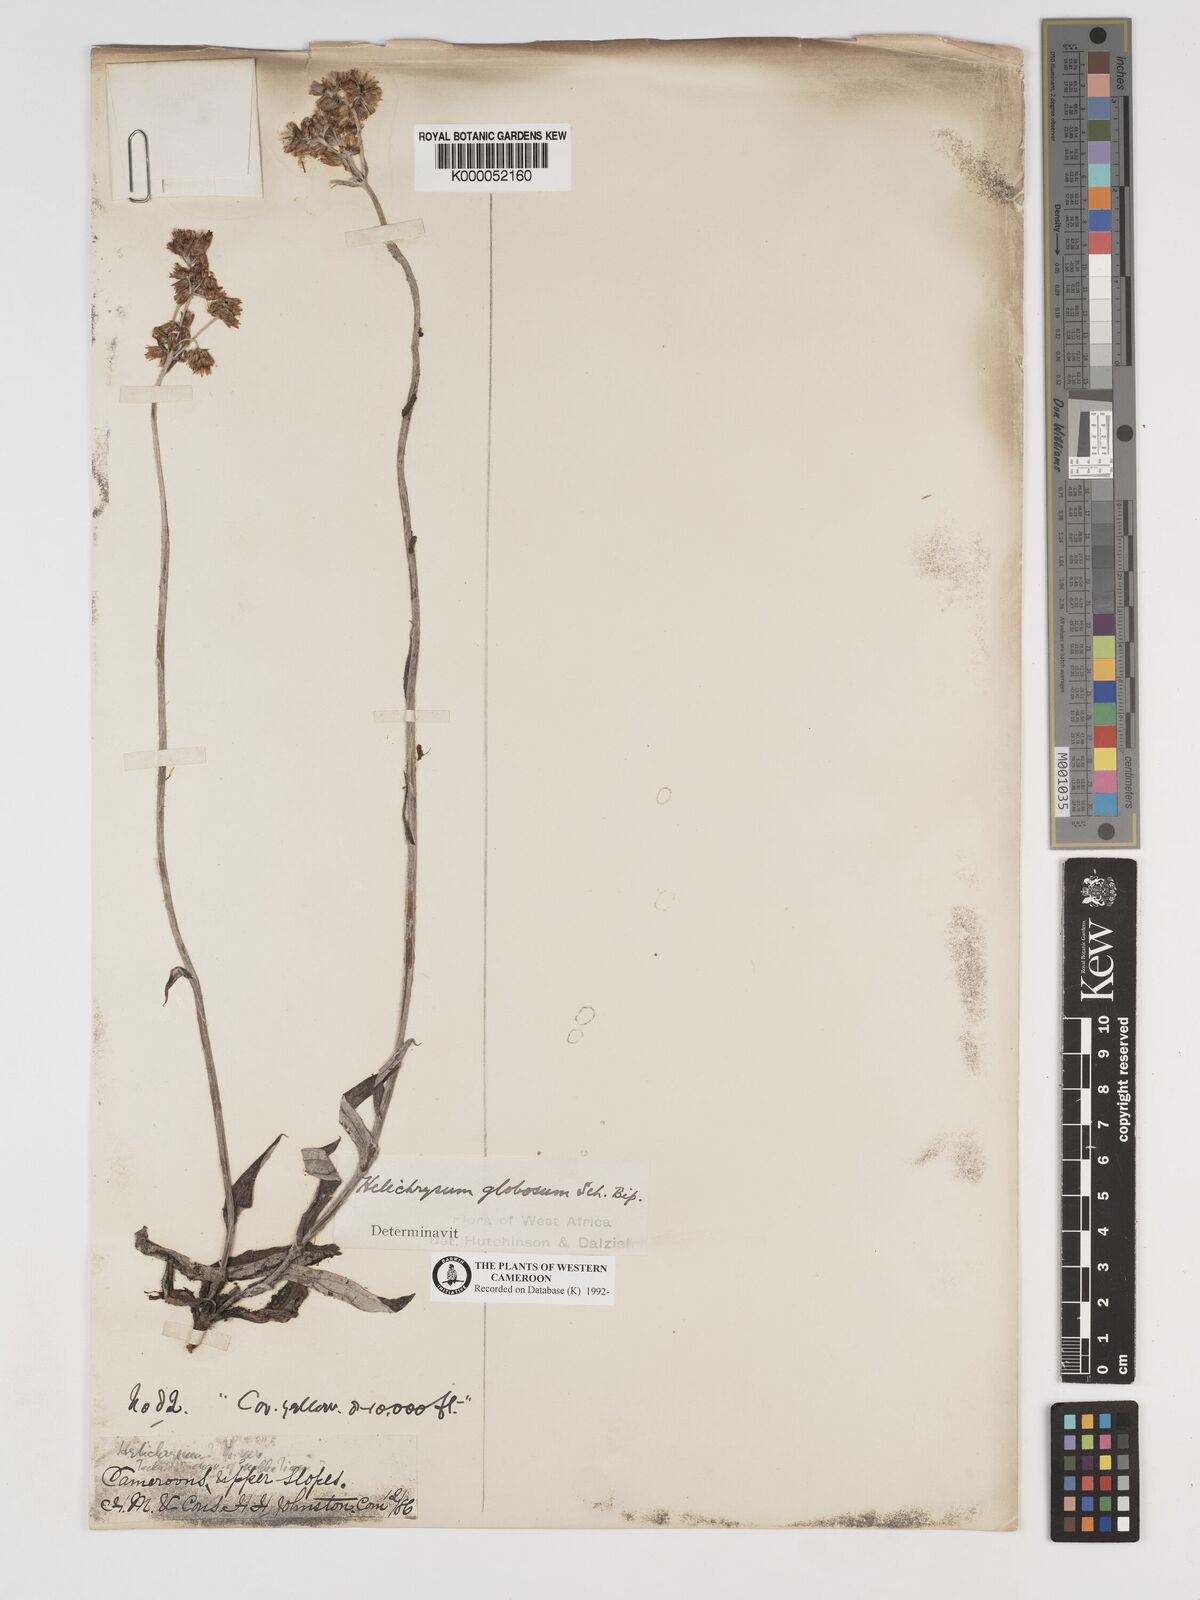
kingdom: Plantae
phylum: Tracheophyta
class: Magnoliopsida
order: Asterales
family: Asteraceae
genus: Helichrysum
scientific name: Helichrysum
